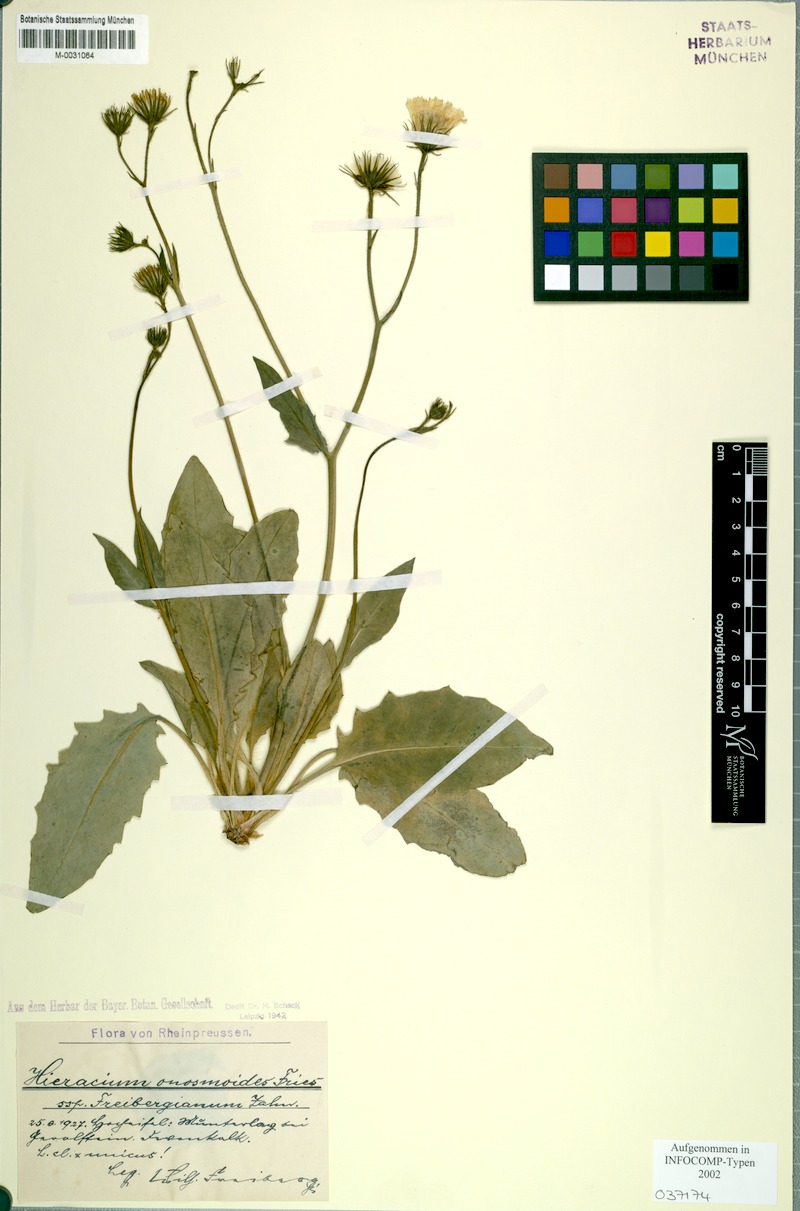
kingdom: Plantae
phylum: Tracheophyta
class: Magnoliopsida
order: Asterales
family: Asteraceae
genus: Hieracium
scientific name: Hieracium onosmoides
